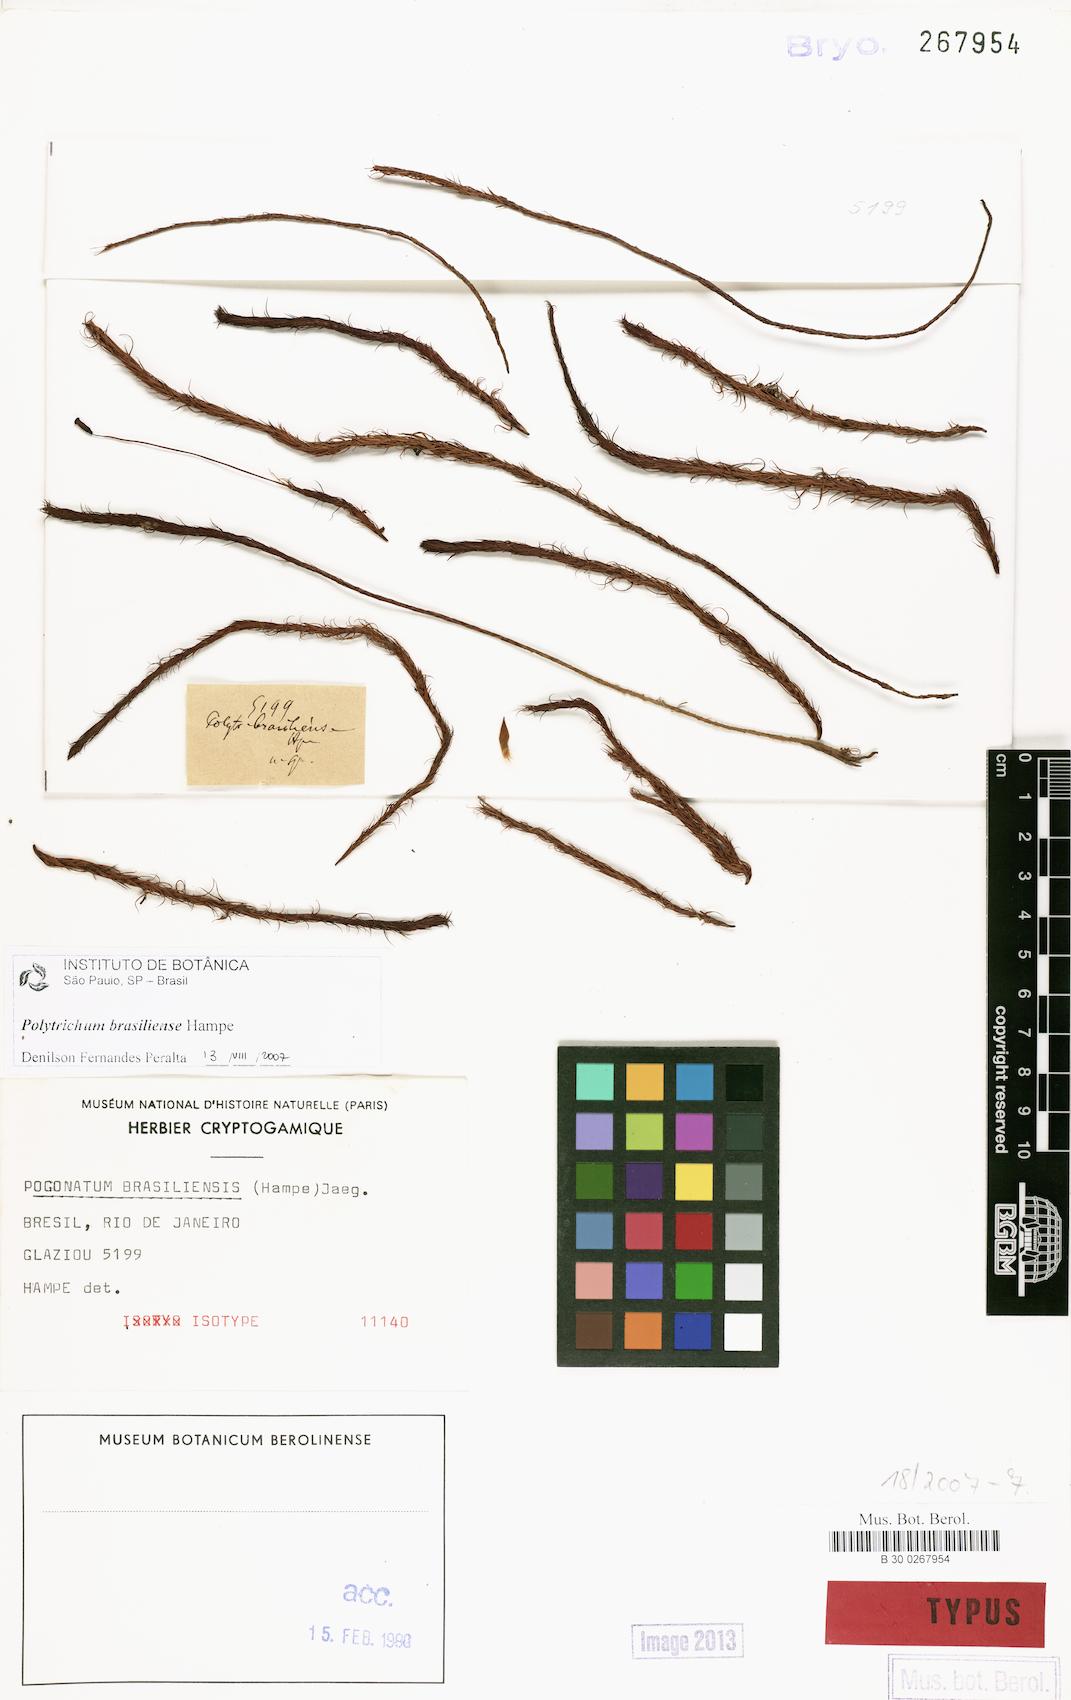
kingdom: Plantae
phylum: Bryophyta
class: Polytrichopsida
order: Polytrichales
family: Polytrichaceae
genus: Polytrichum
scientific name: Polytrichum angustifolium
